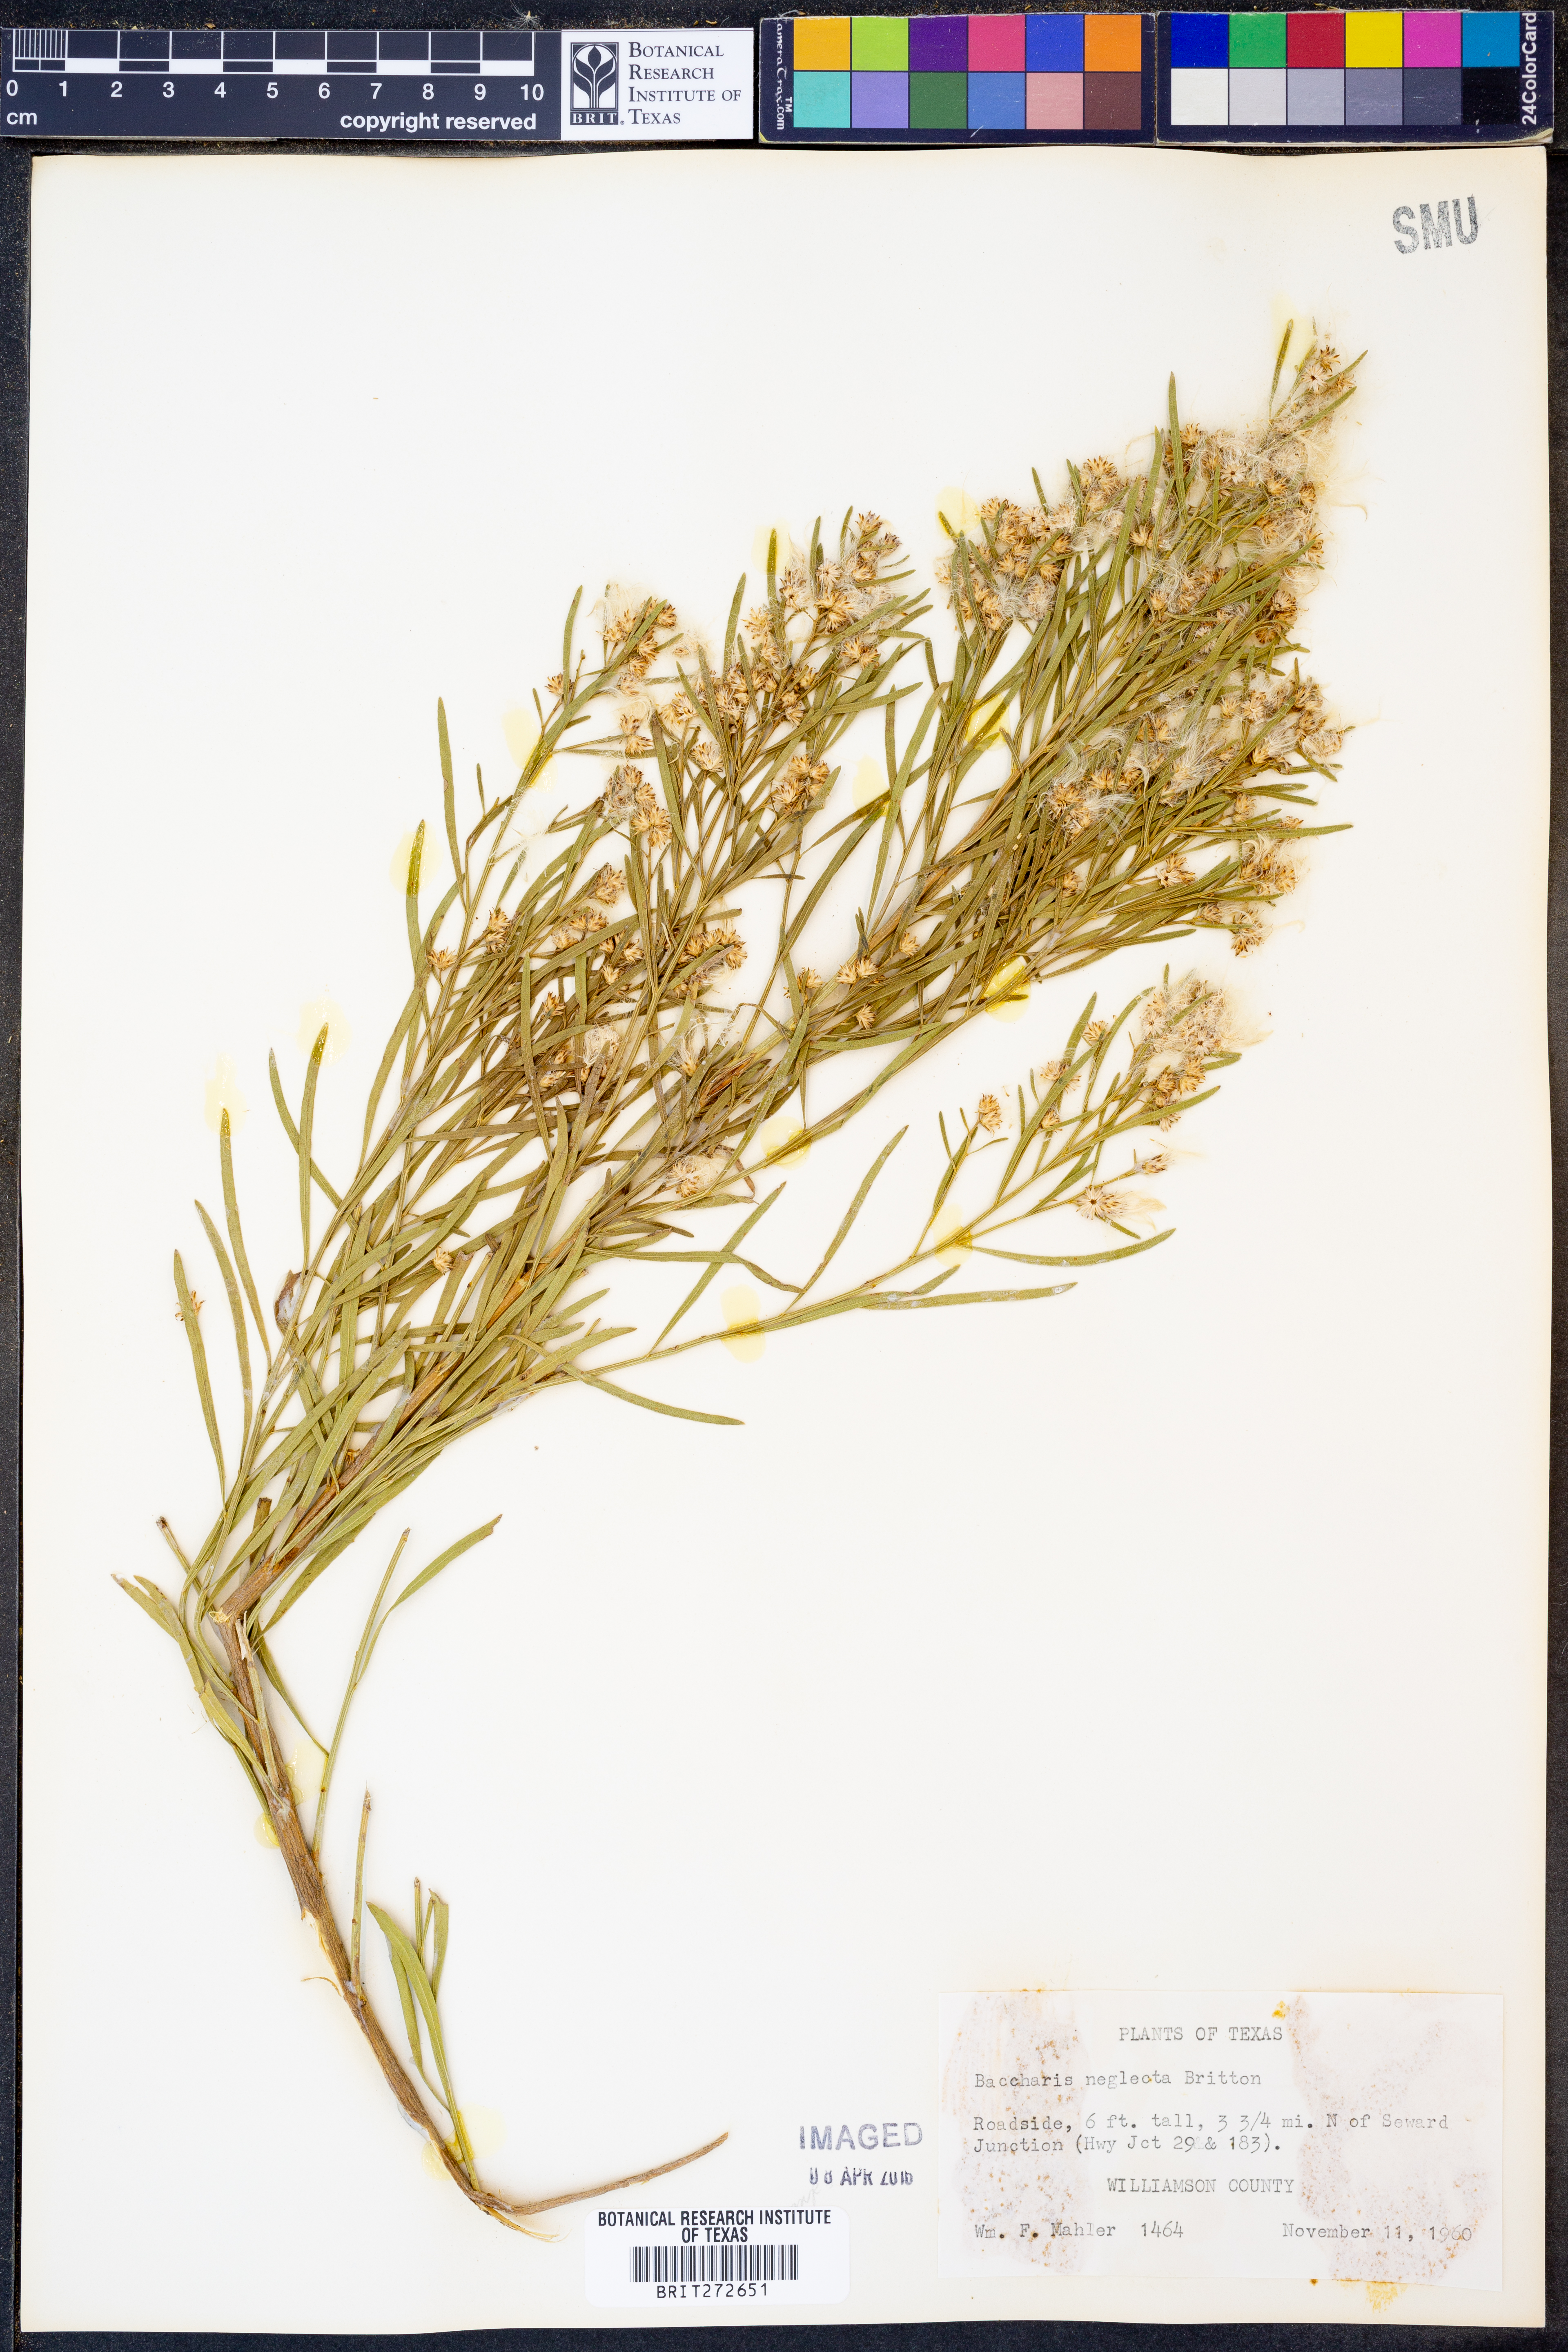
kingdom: Plantae
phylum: Tracheophyta
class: Magnoliopsida
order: Asterales
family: Asteraceae
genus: Baccharis
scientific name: Baccharis neglecta
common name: Roosevelt-weed
